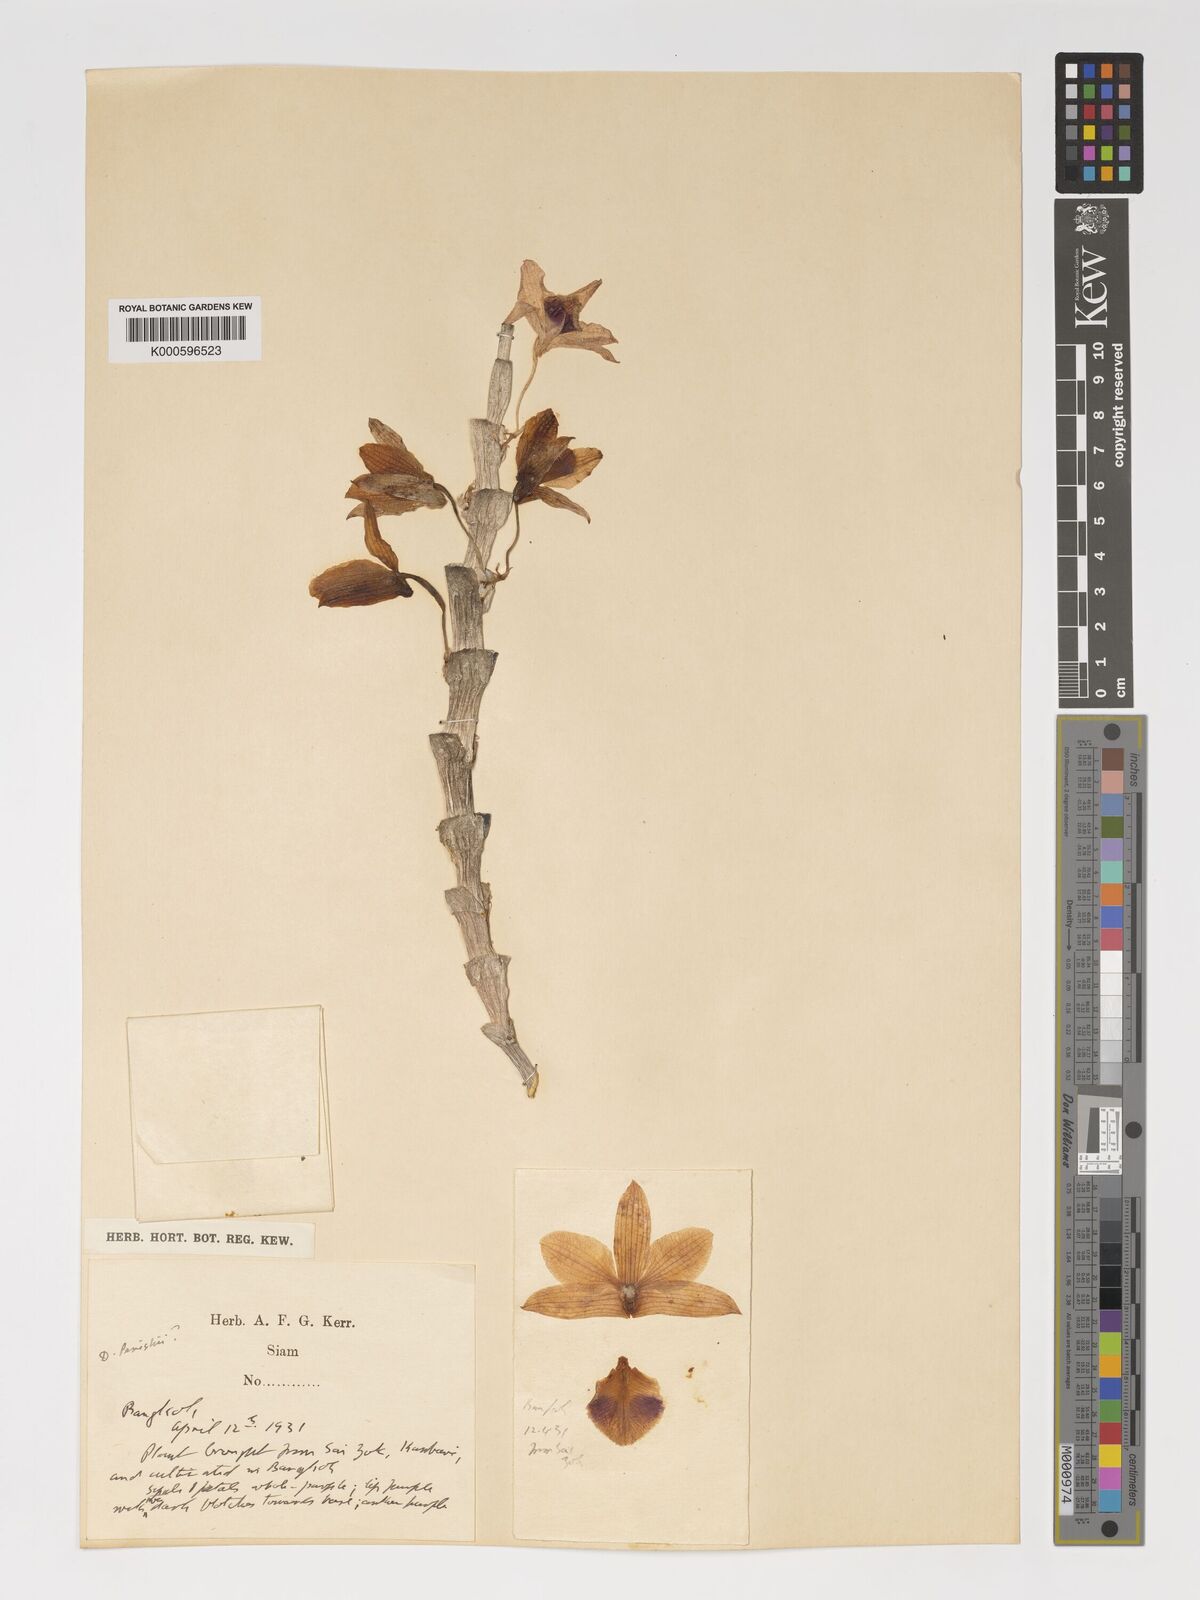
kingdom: Plantae
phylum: Tracheophyta
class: Liliopsida
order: Asparagales
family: Orchidaceae
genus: Dendrobium
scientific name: Dendrobium
